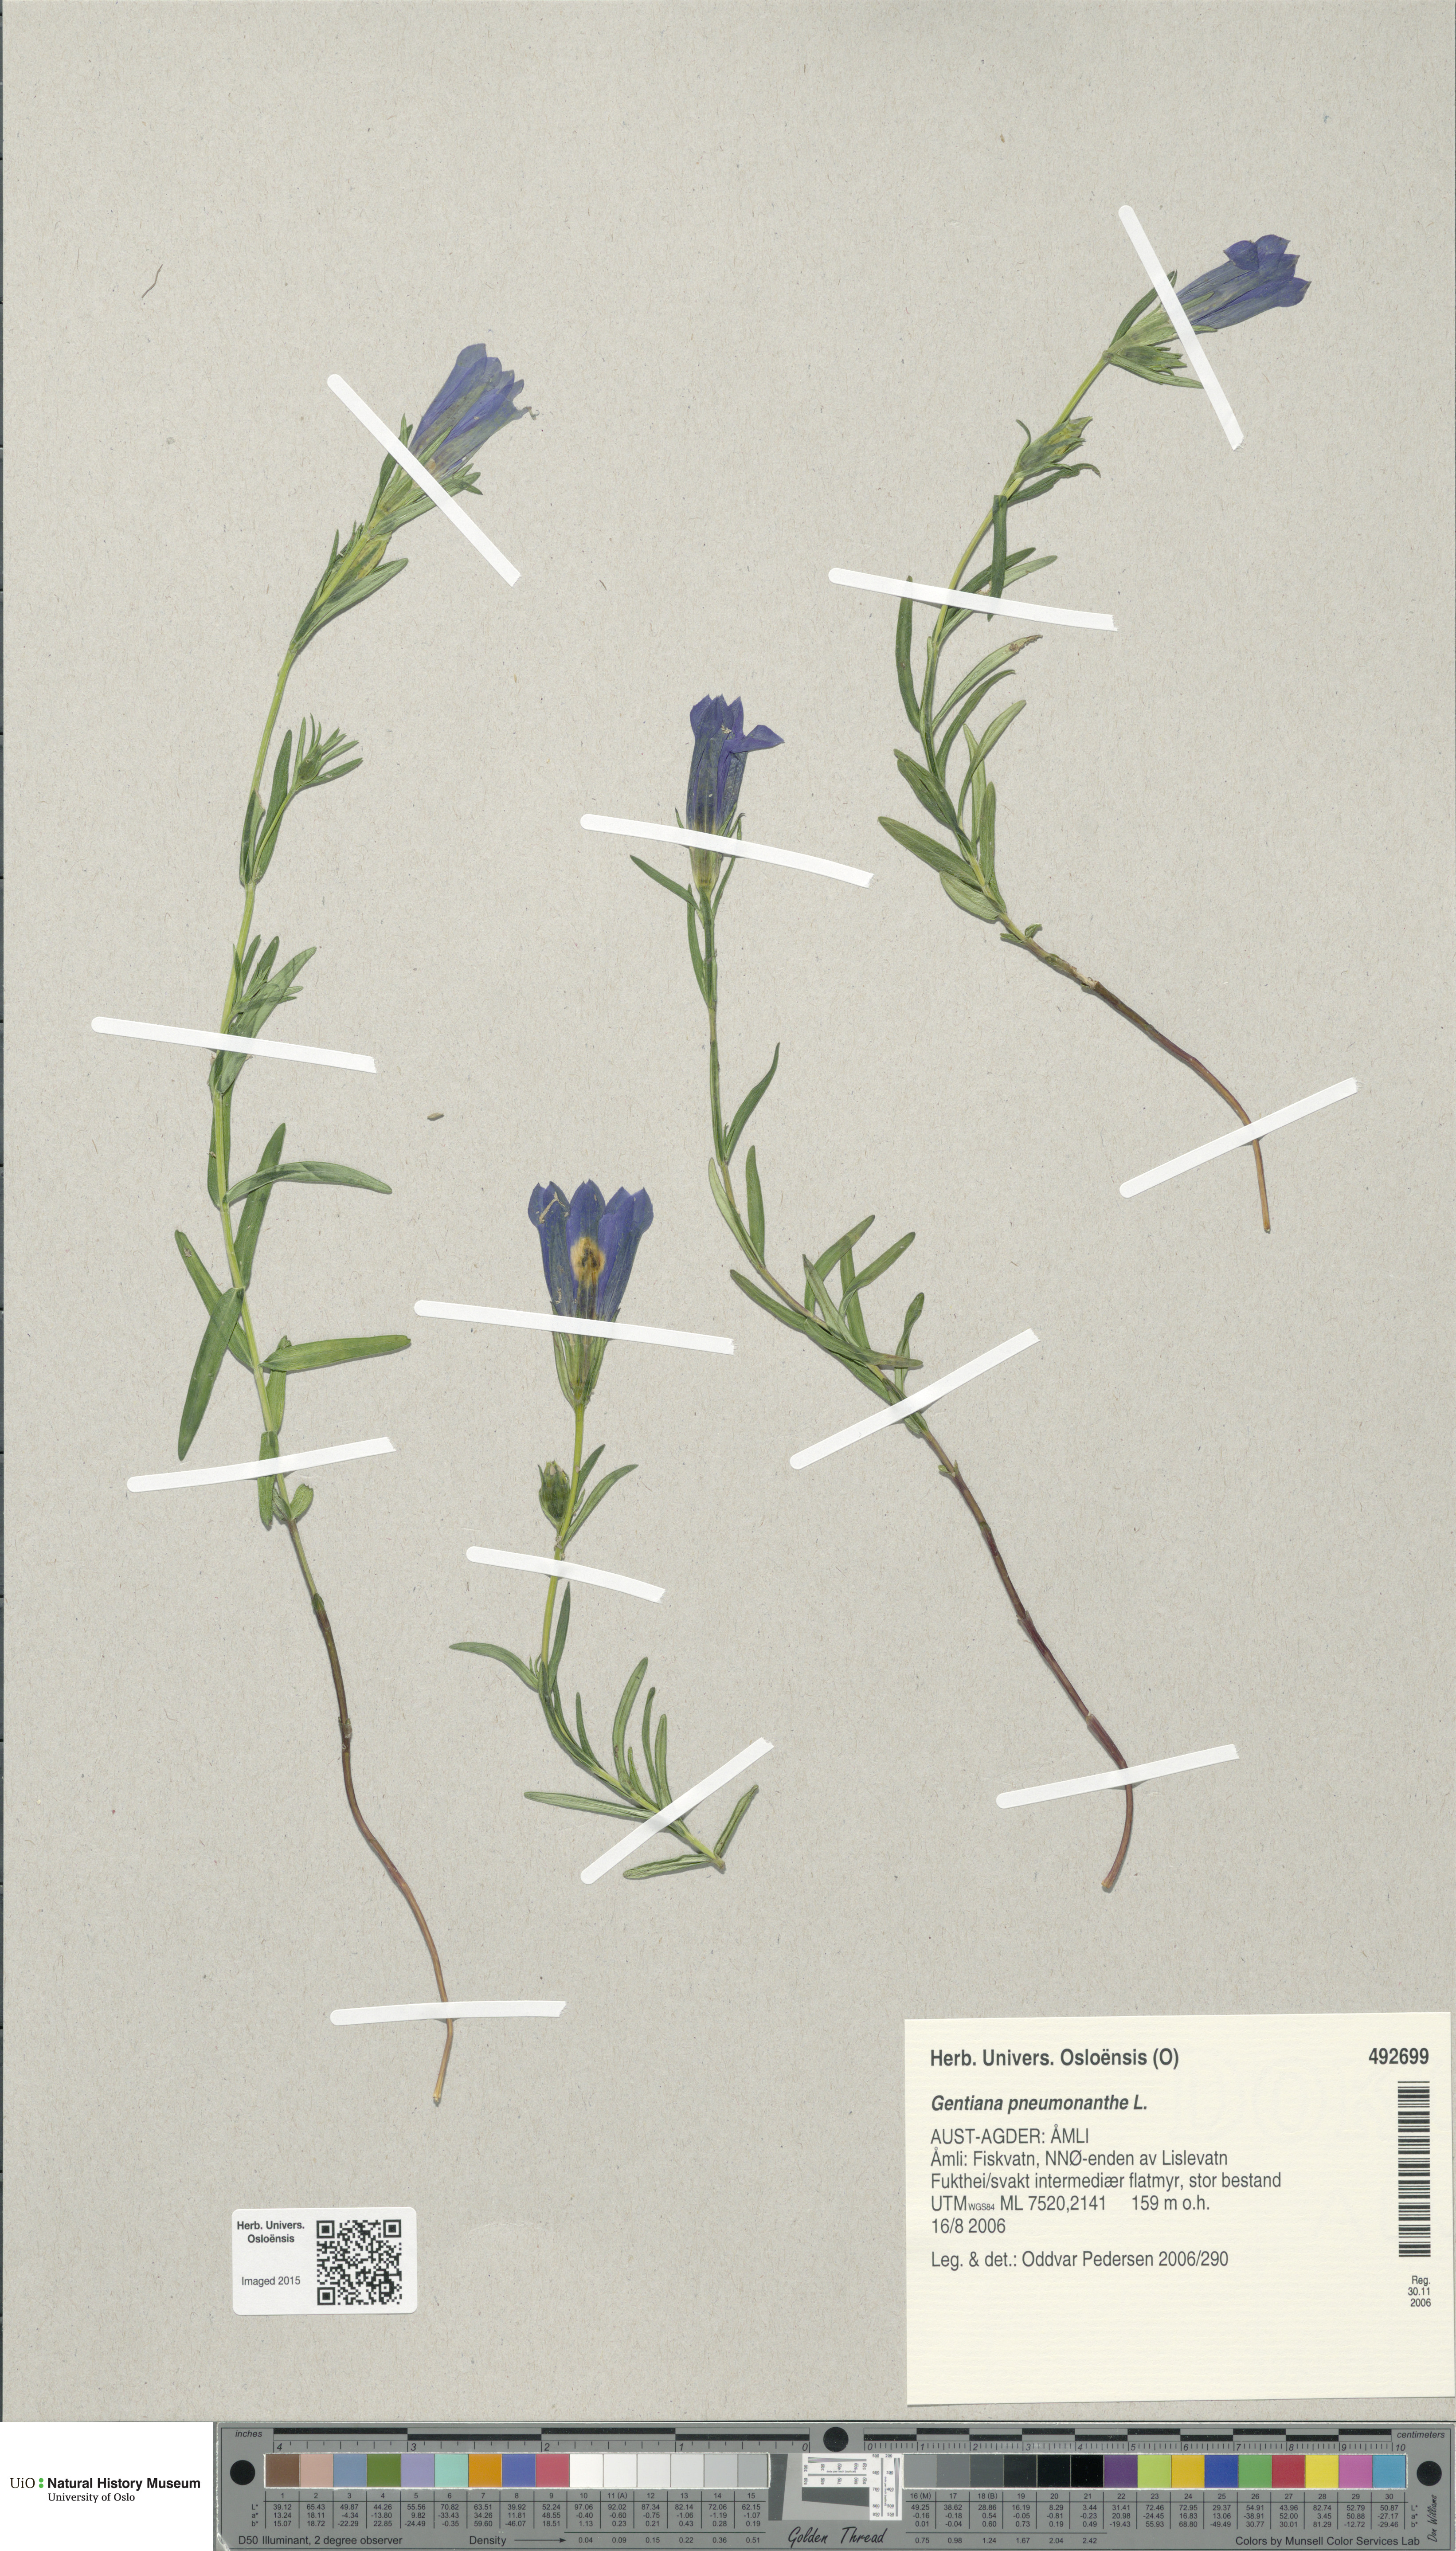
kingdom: Plantae
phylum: Tracheophyta
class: Magnoliopsida
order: Gentianales
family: Gentianaceae
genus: Gentiana
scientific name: Gentiana pneumonanthe
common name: Marsh gentian
